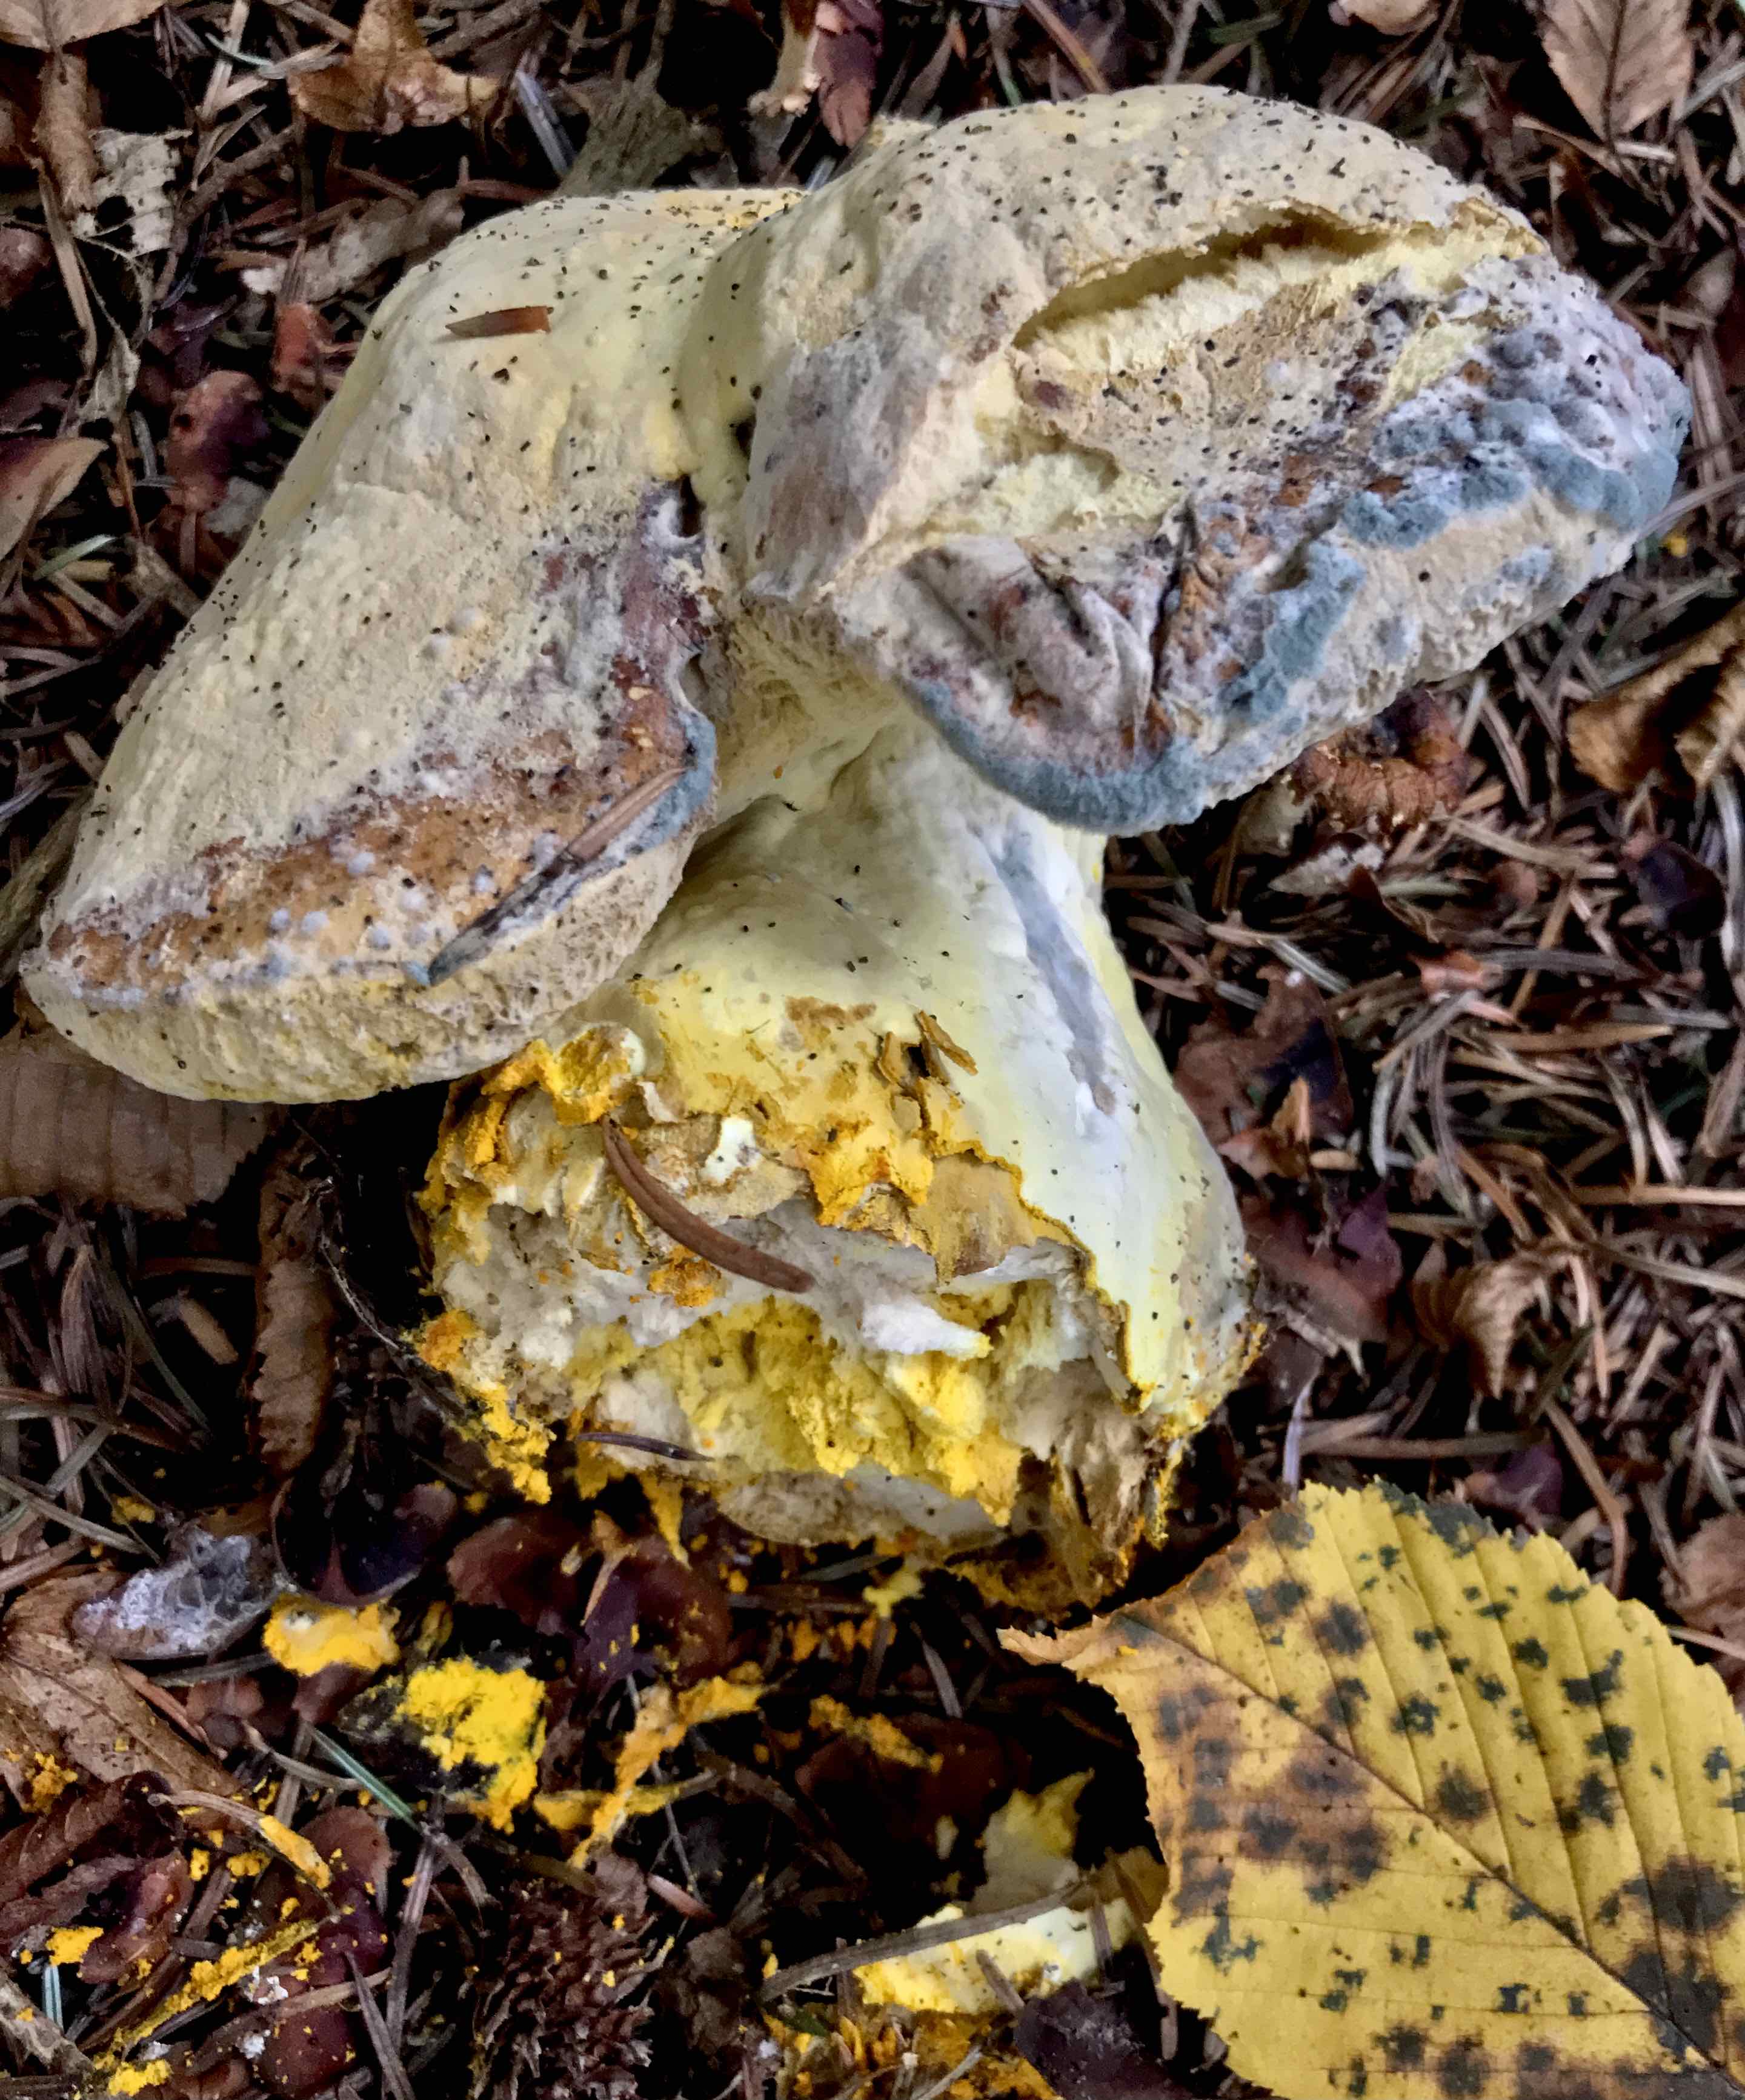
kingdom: Fungi
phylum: Ascomycota
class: Sordariomycetes
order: Hypocreales
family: Hypocreaceae
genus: Hypomyces
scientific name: Hypomyces chrysospermus
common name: gulskimmel-snylteskorpe
